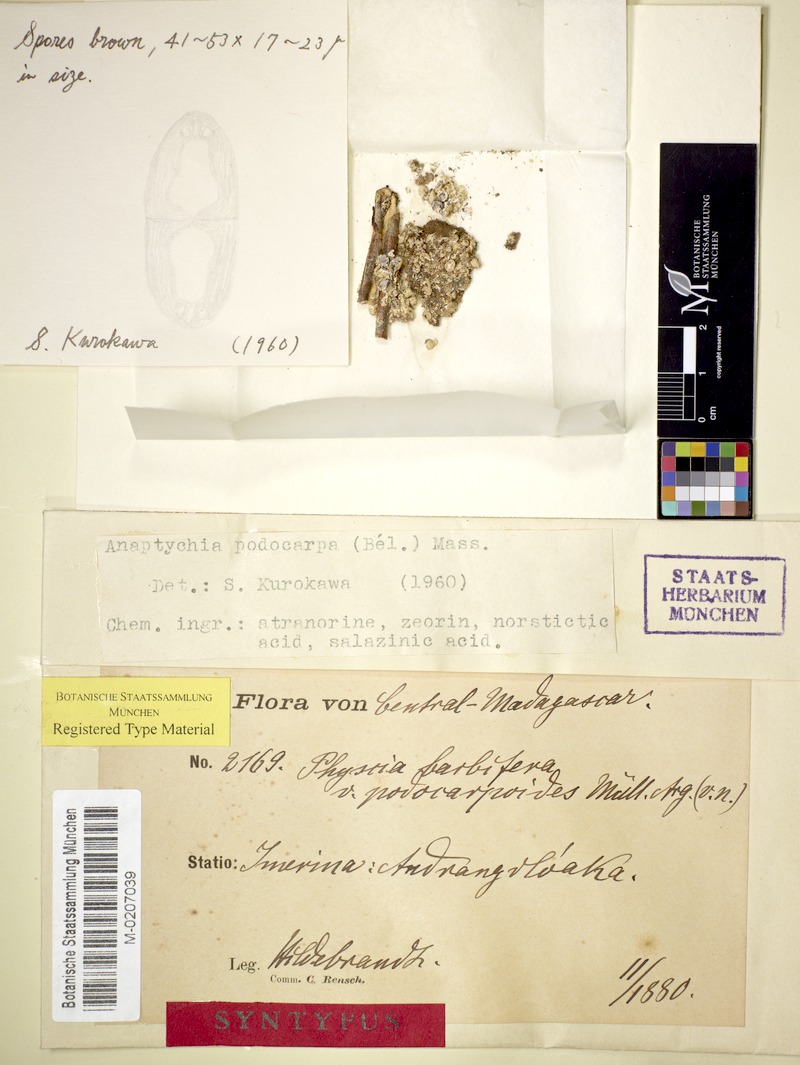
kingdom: Fungi
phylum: Ascomycota
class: Lecanoromycetes
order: Caliciales
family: Physciaceae
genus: Heterodermia
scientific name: Heterodermia podocarpa
